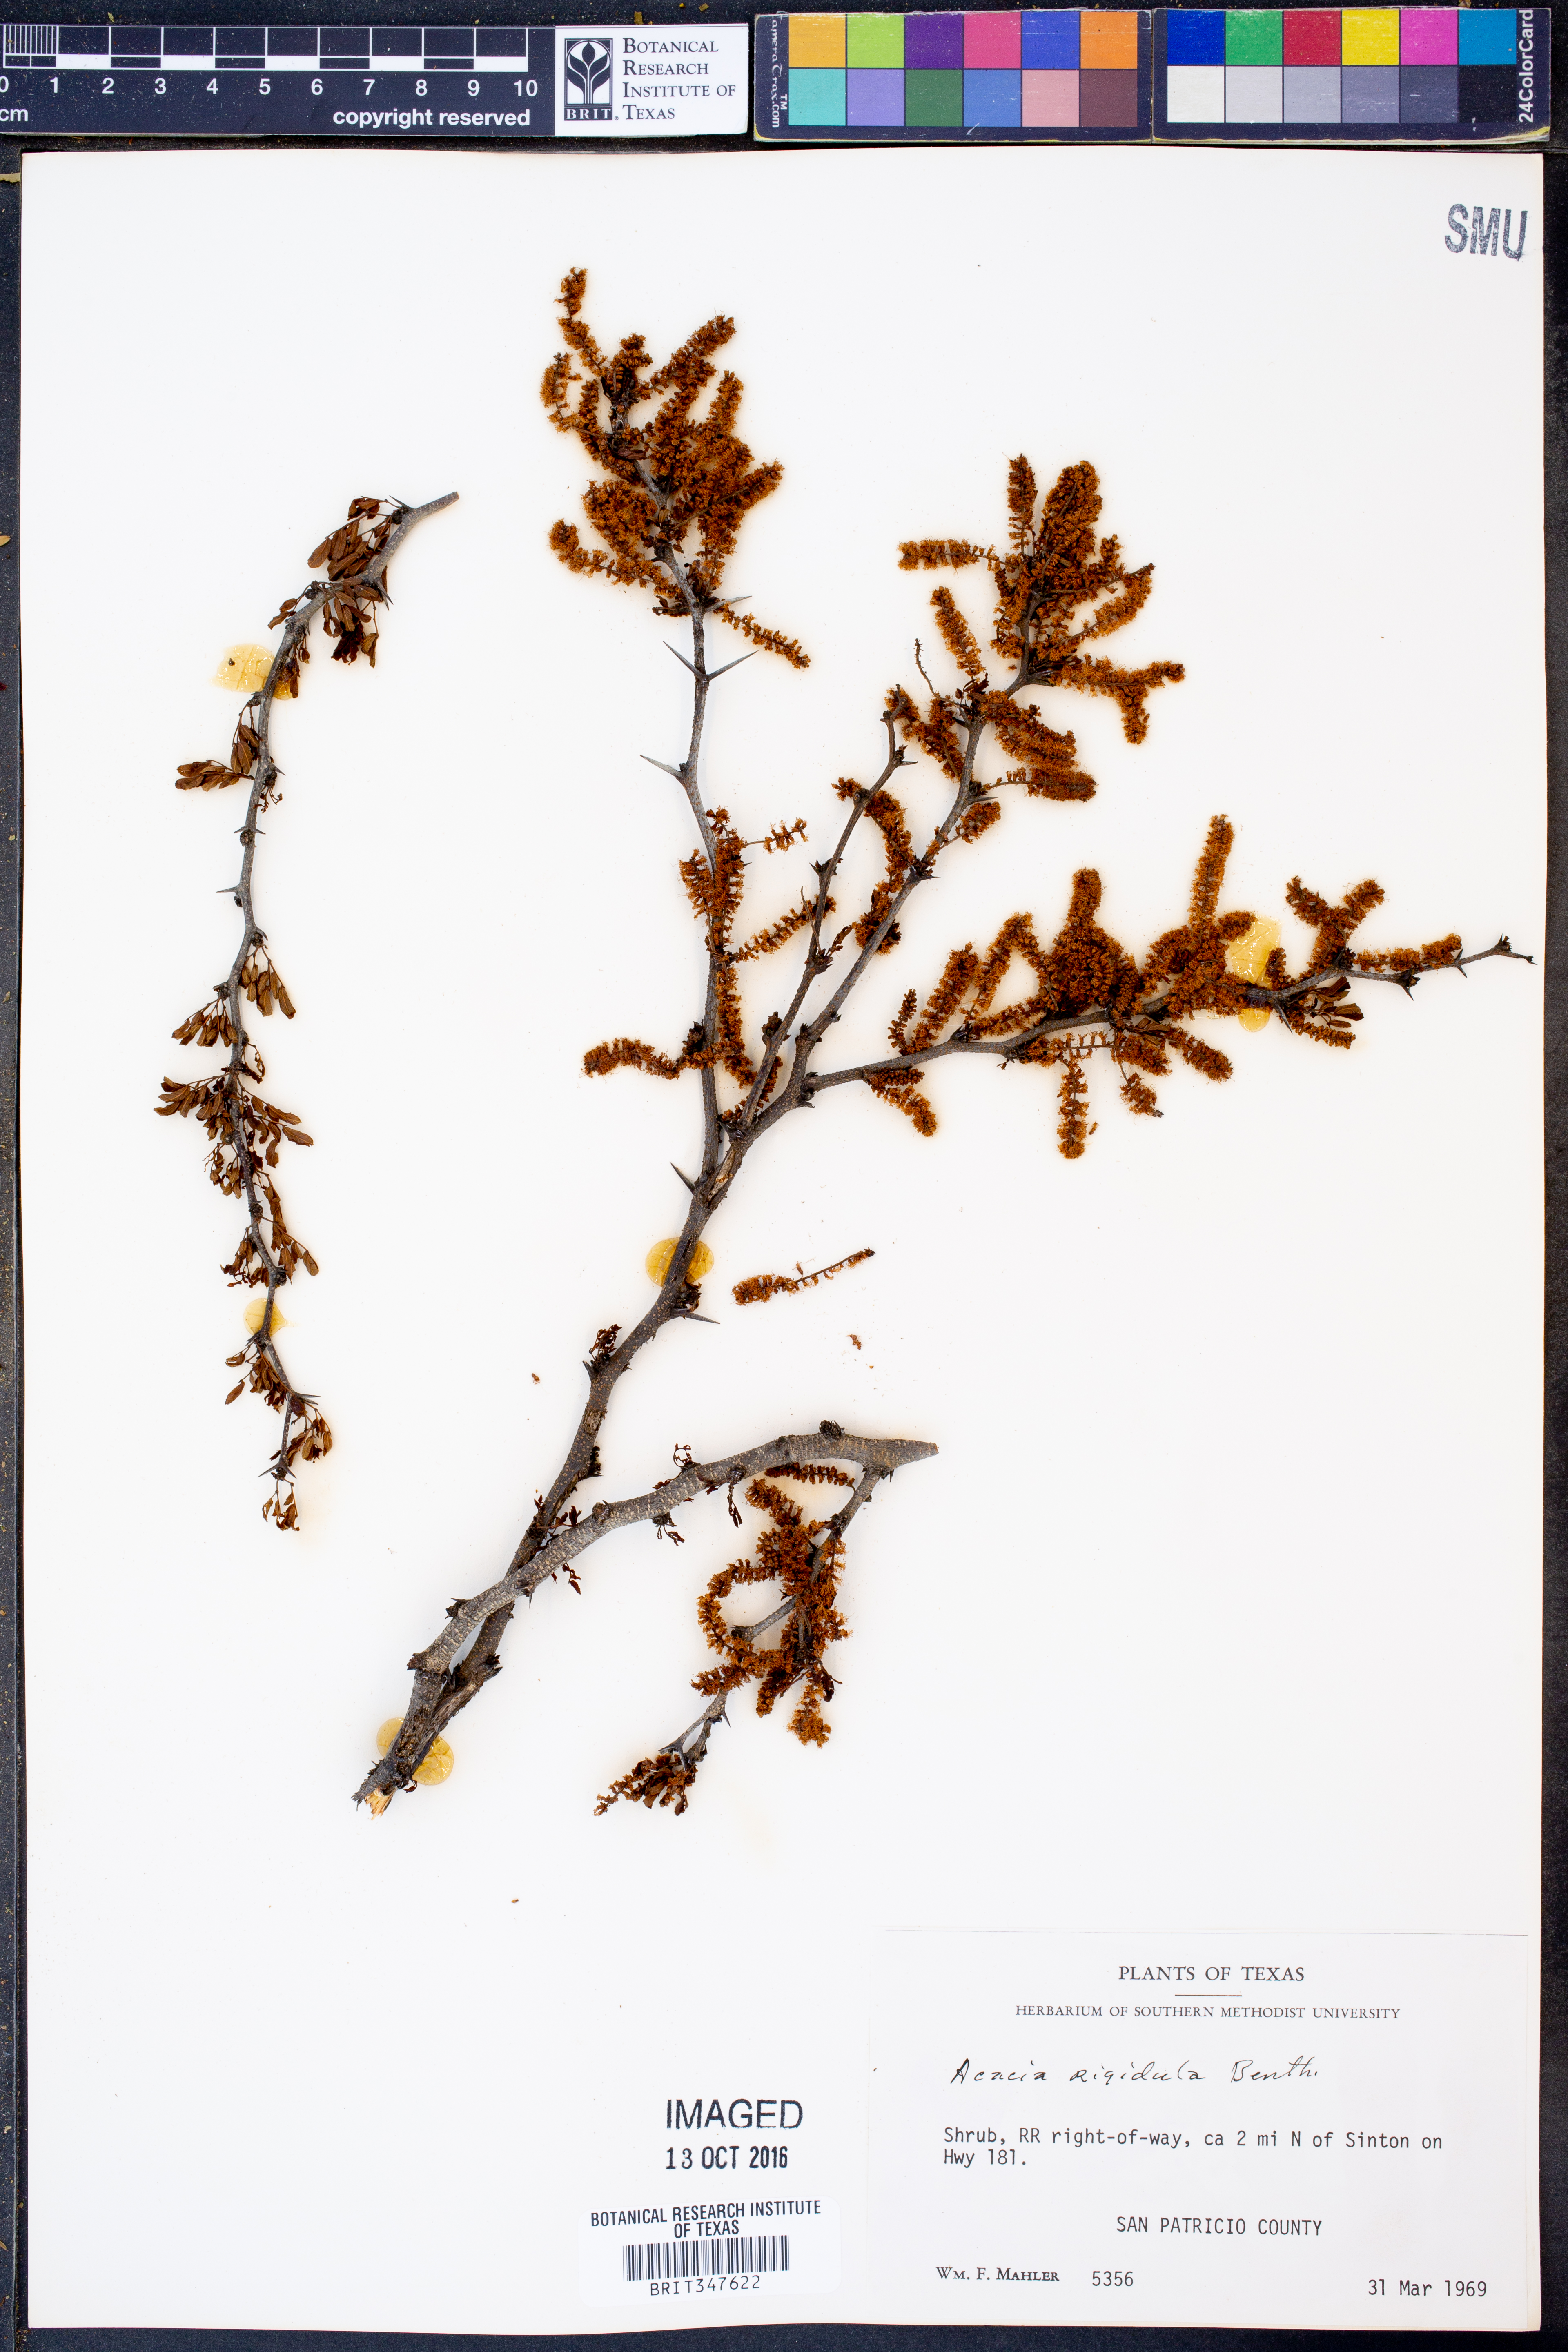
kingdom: Plantae
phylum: Tracheophyta
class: Magnoliopsida
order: Fabales
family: Fabaceae
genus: Vachellia
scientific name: Vachellia rigidula
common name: Blackbrush
